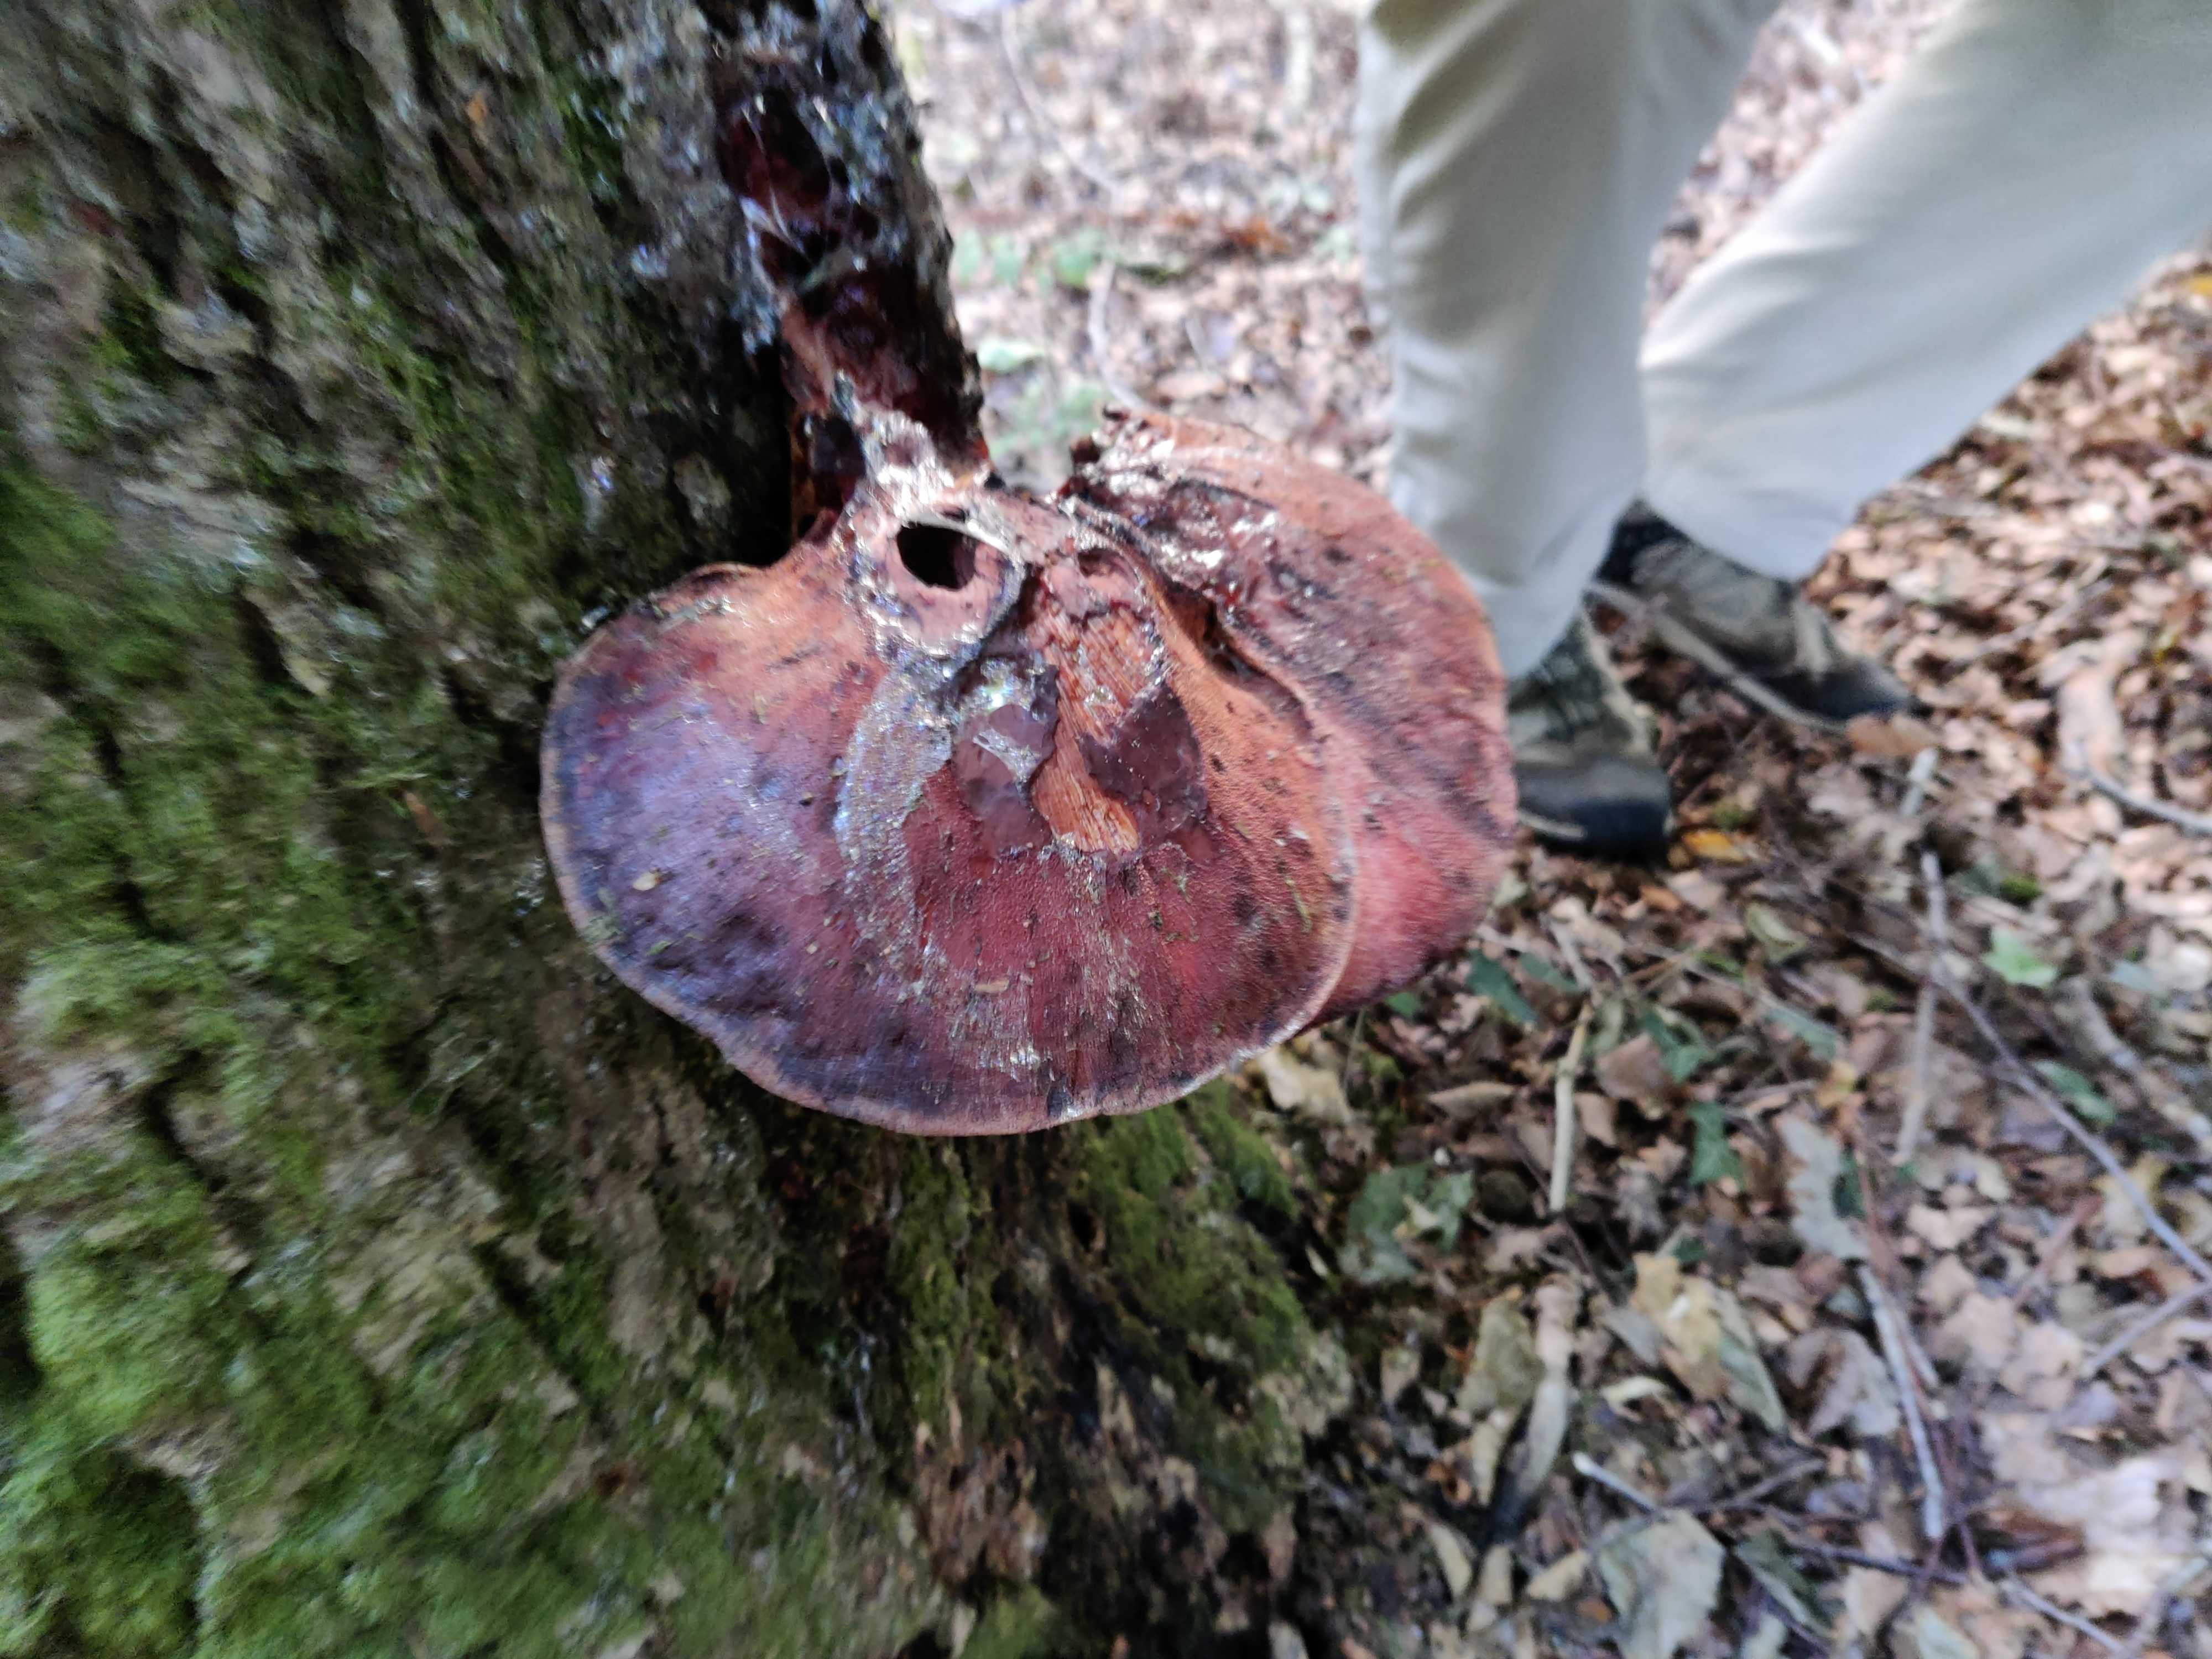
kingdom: Fungi
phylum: Basidiomycota
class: Agaricomycetes
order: Agaricales
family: Fistulinaceae
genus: Fistulina
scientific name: Fistulina hepatica
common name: oksetunge
